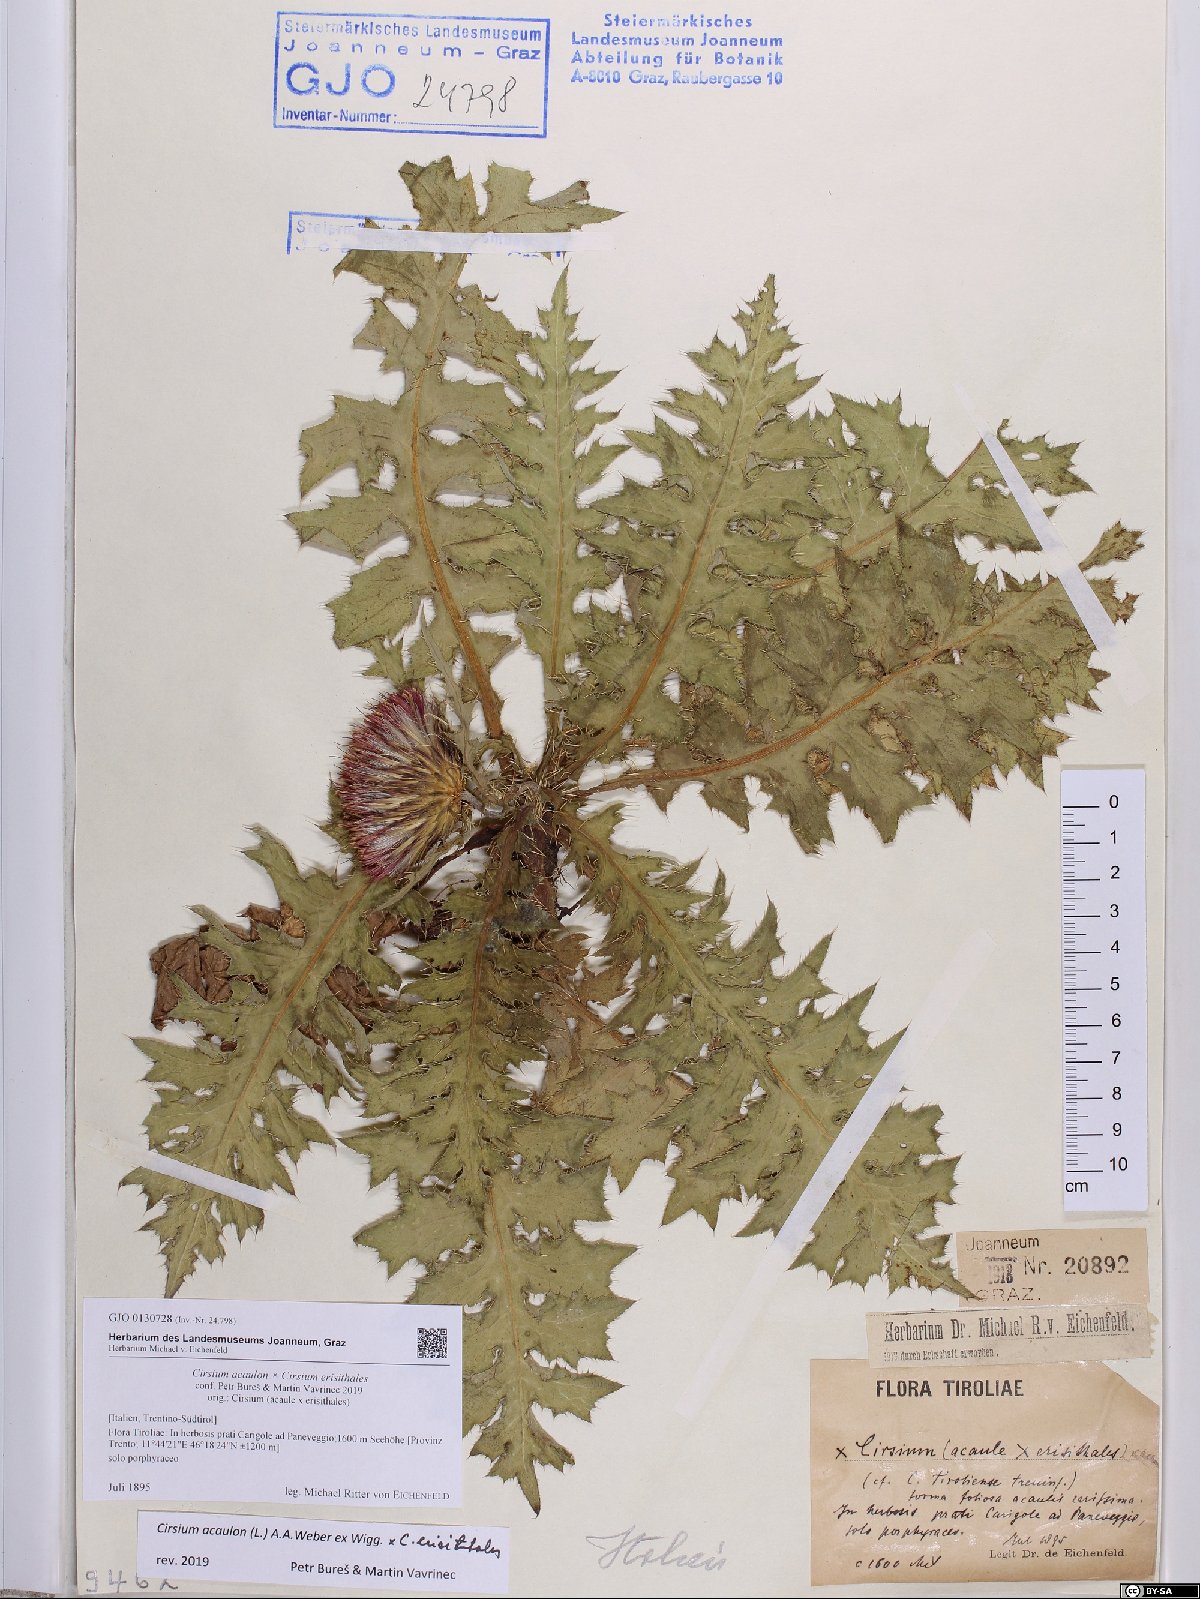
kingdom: Plantae
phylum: Tracheophyta
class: Magnoliopsida
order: Asterales
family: Asteraceae
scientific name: Asteraceae
